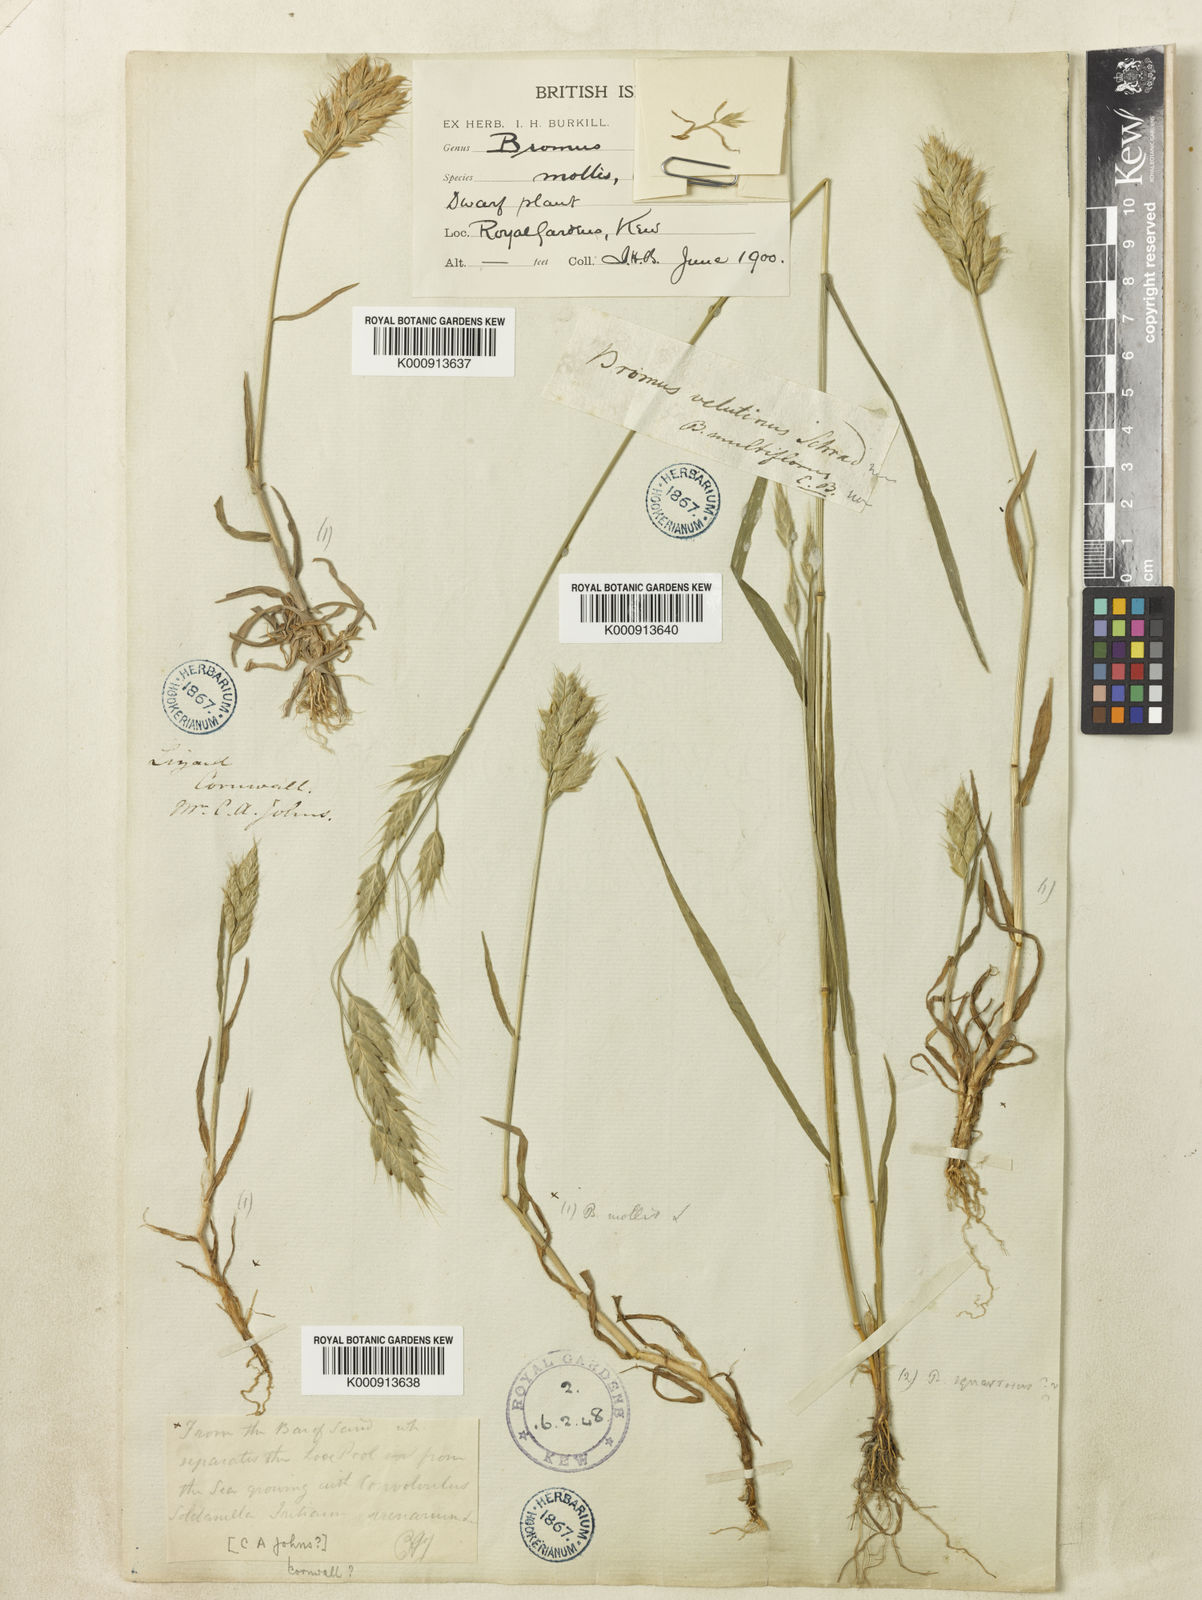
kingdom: Plantae
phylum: Tracheophyta
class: Liliopsida
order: Poales
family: Poaceae
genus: Bromus
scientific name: Bromus hordeaceus
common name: Soft brome
